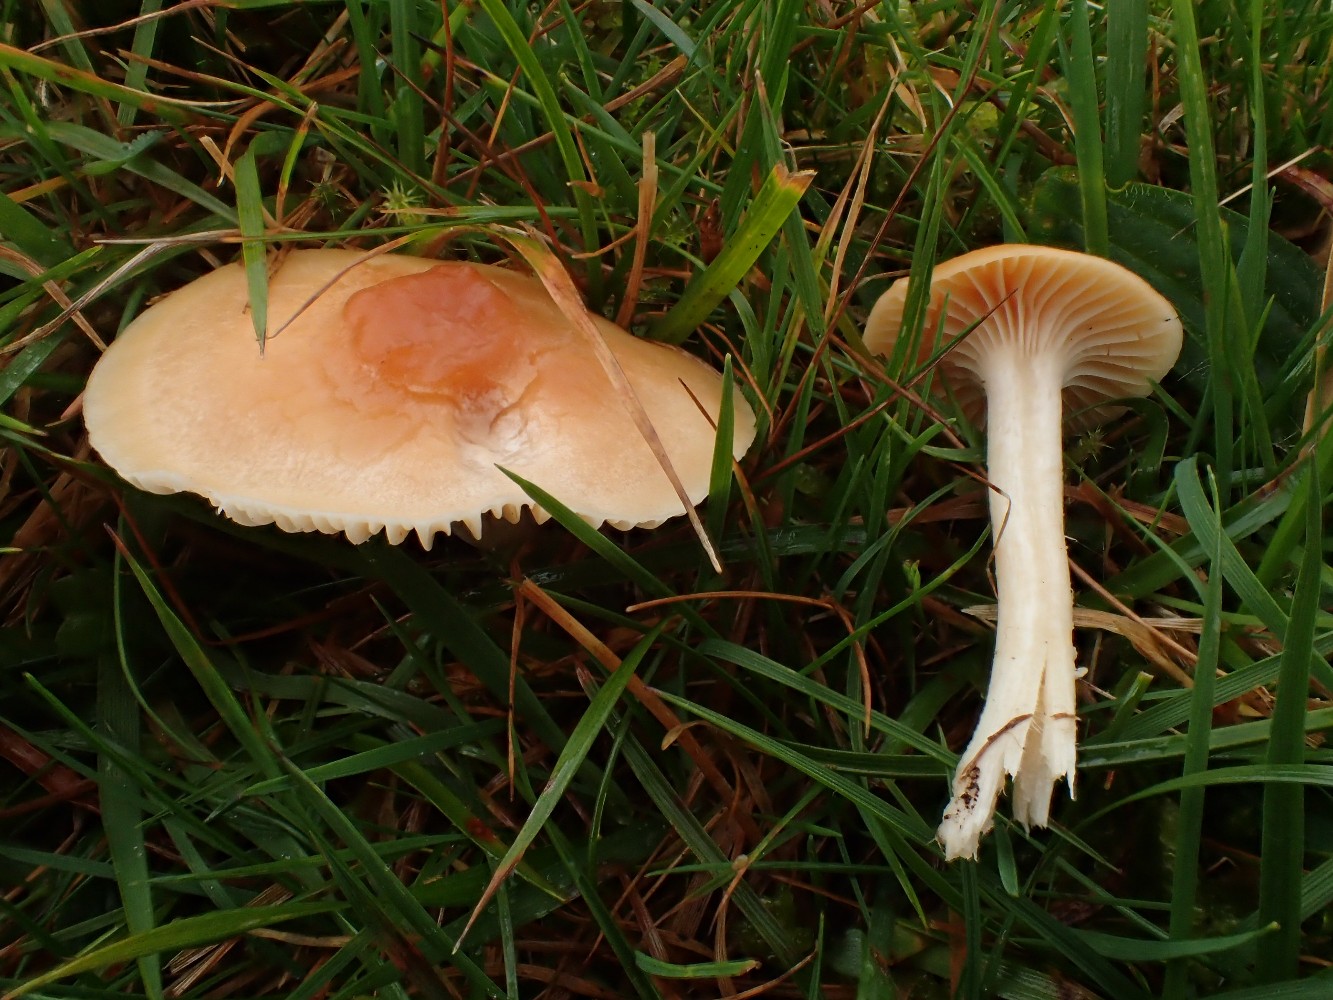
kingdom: Fungi
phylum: Basidiomycota
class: Agaricomycetes
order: Agaricales
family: Hygrophoraceae
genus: Cuphophyllus
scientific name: Cuphophyllus pratensis
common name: eng-vokshat
